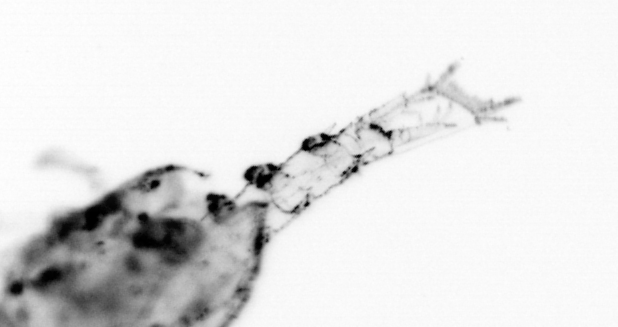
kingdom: Animalia
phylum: Arthropoda
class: Malacostraca
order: Decapoda
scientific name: Decapoda
